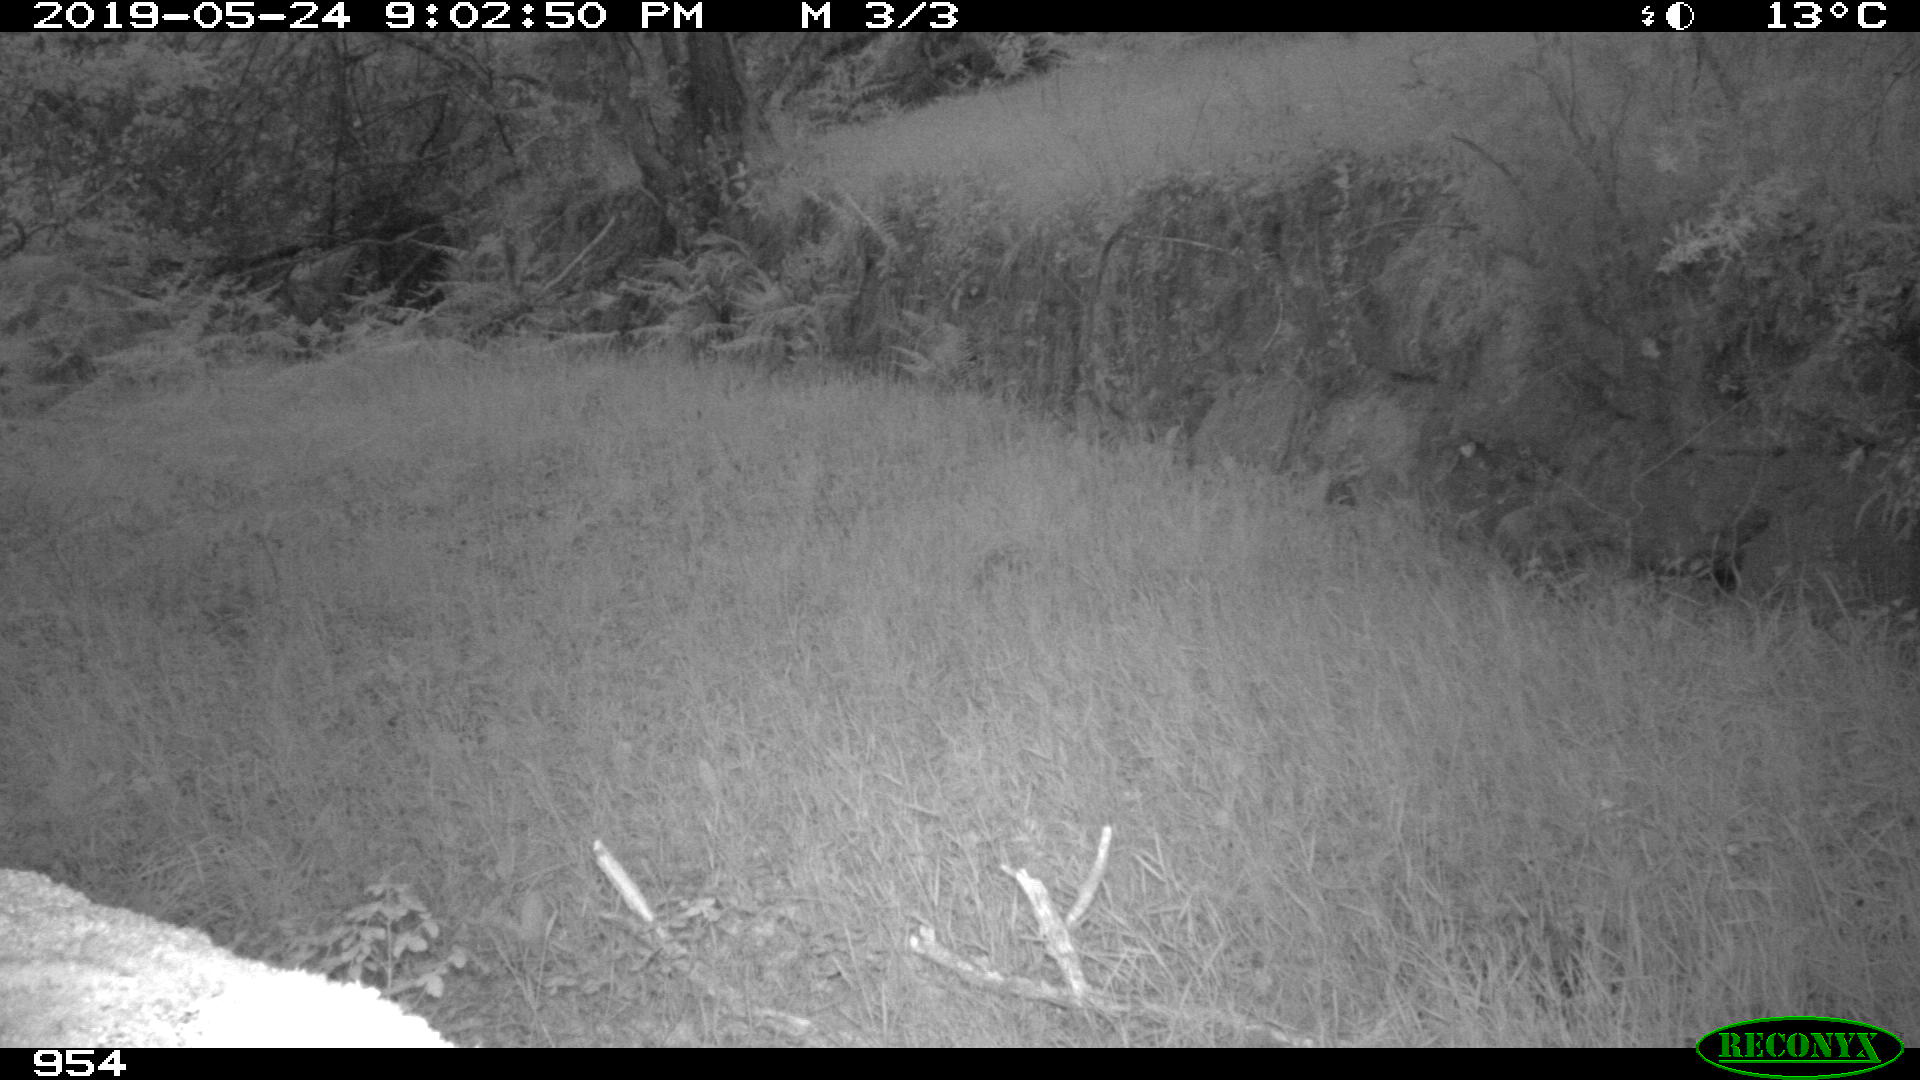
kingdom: Animalia
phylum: Chordata
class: Mammalia
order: Carnivora
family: Mustelidae
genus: Martes
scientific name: Martes foina
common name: Beech marten
